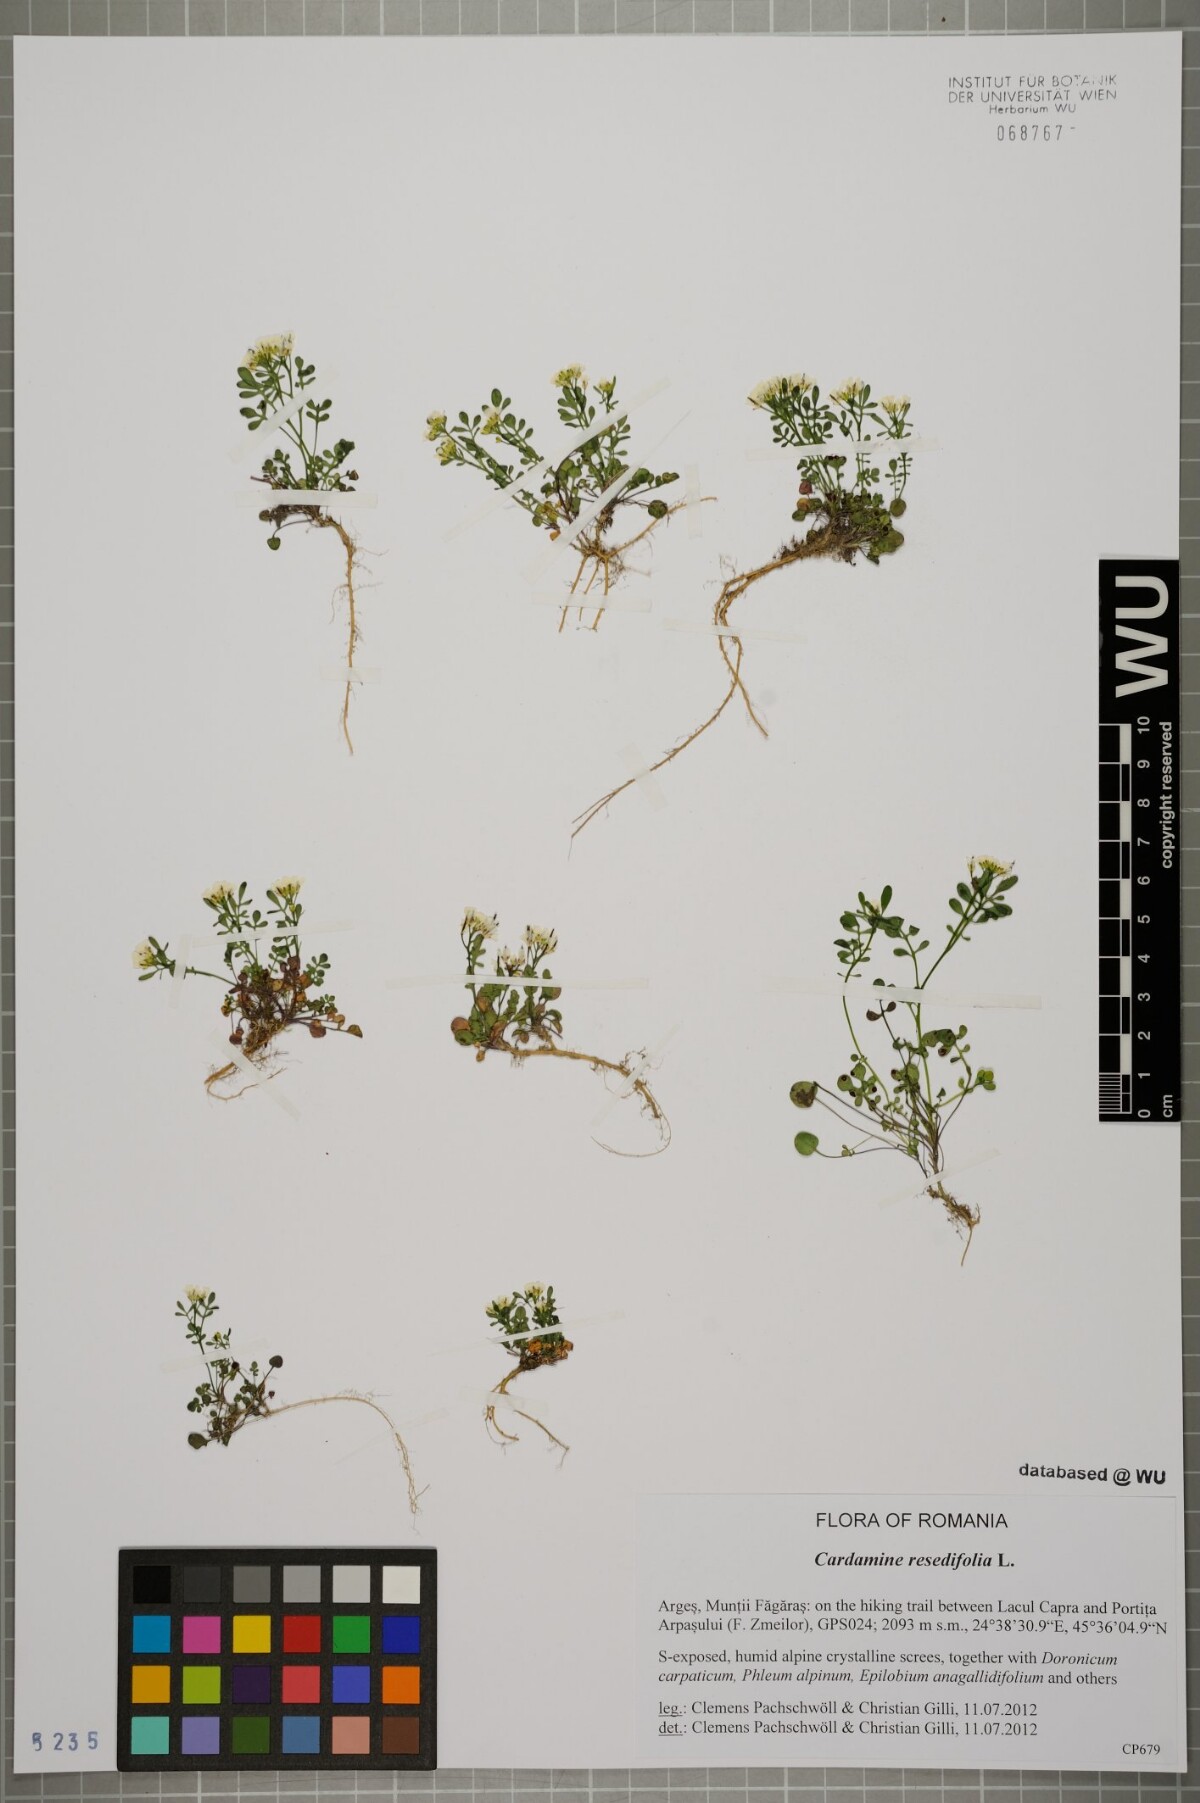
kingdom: Plantae
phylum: Tracheophyta
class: Magnoliopsida
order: Brassicales
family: Brassicaceae
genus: Cardamine
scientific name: Cardamine resedifolia
